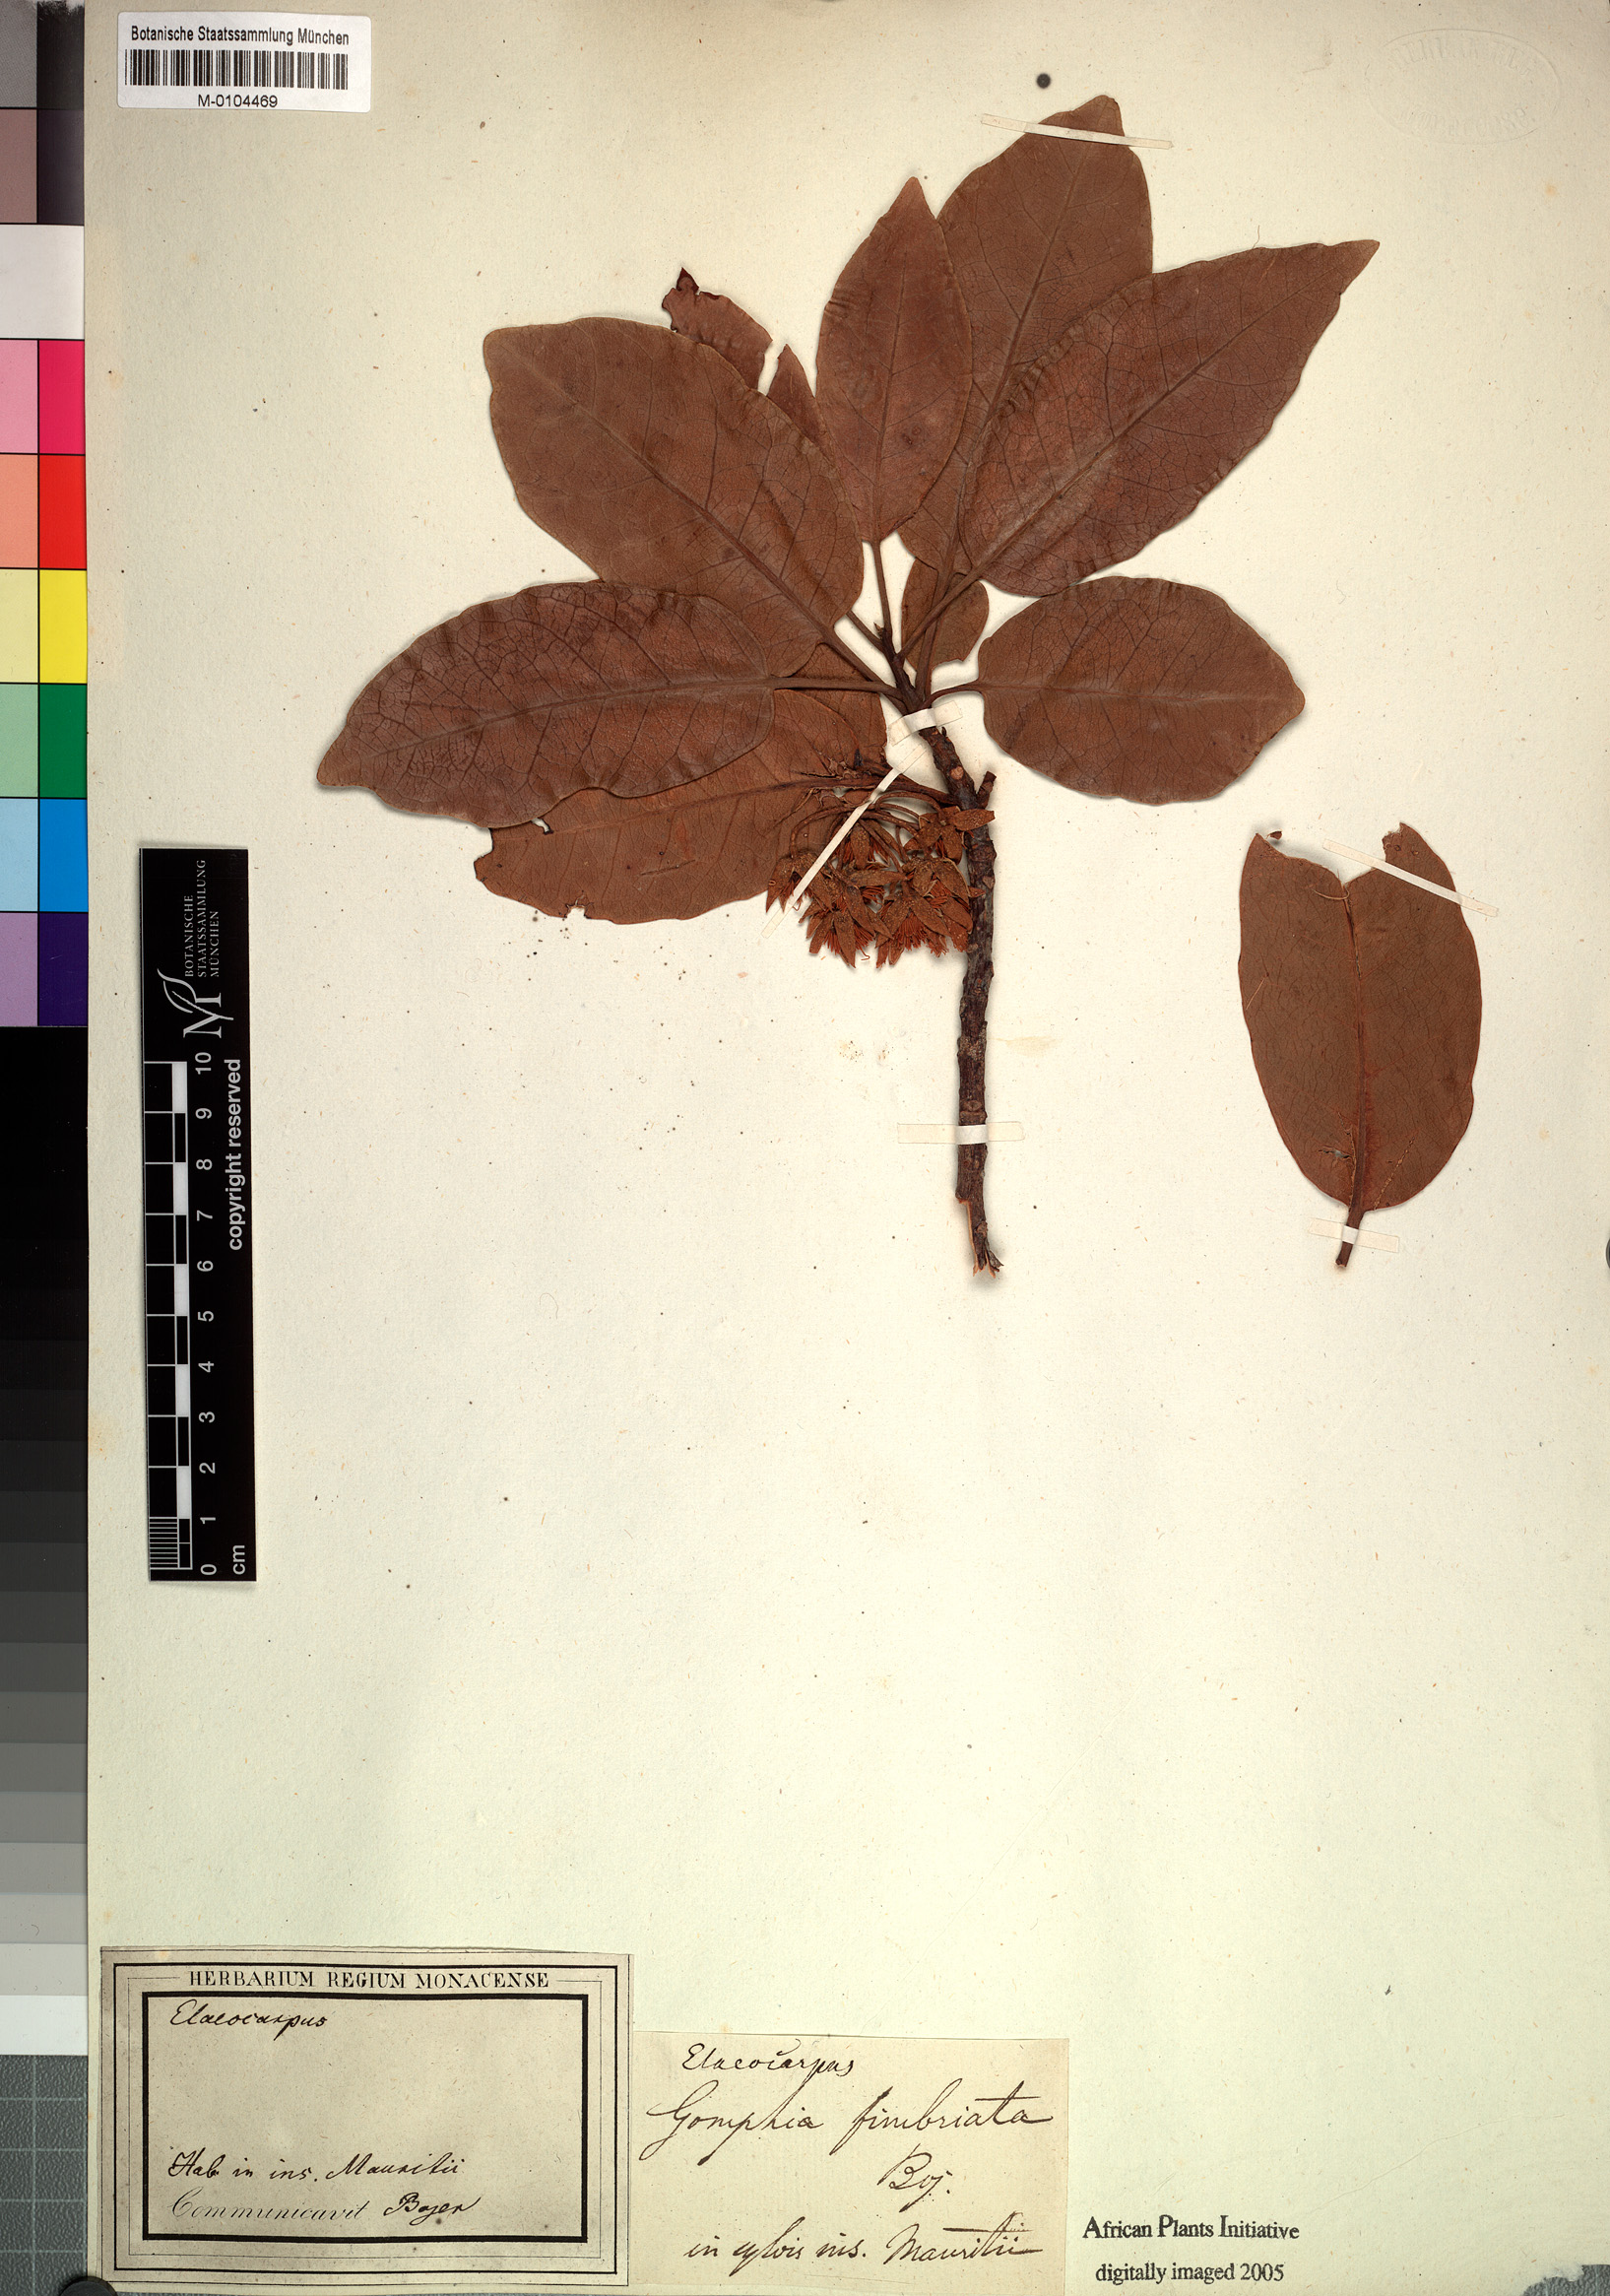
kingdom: Plantae
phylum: Tracheophyta
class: Magnoliopsida
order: Oxalidales
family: Elaeocarpaceae
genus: Elaeocarpus
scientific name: Elaeocarpus bojeri
